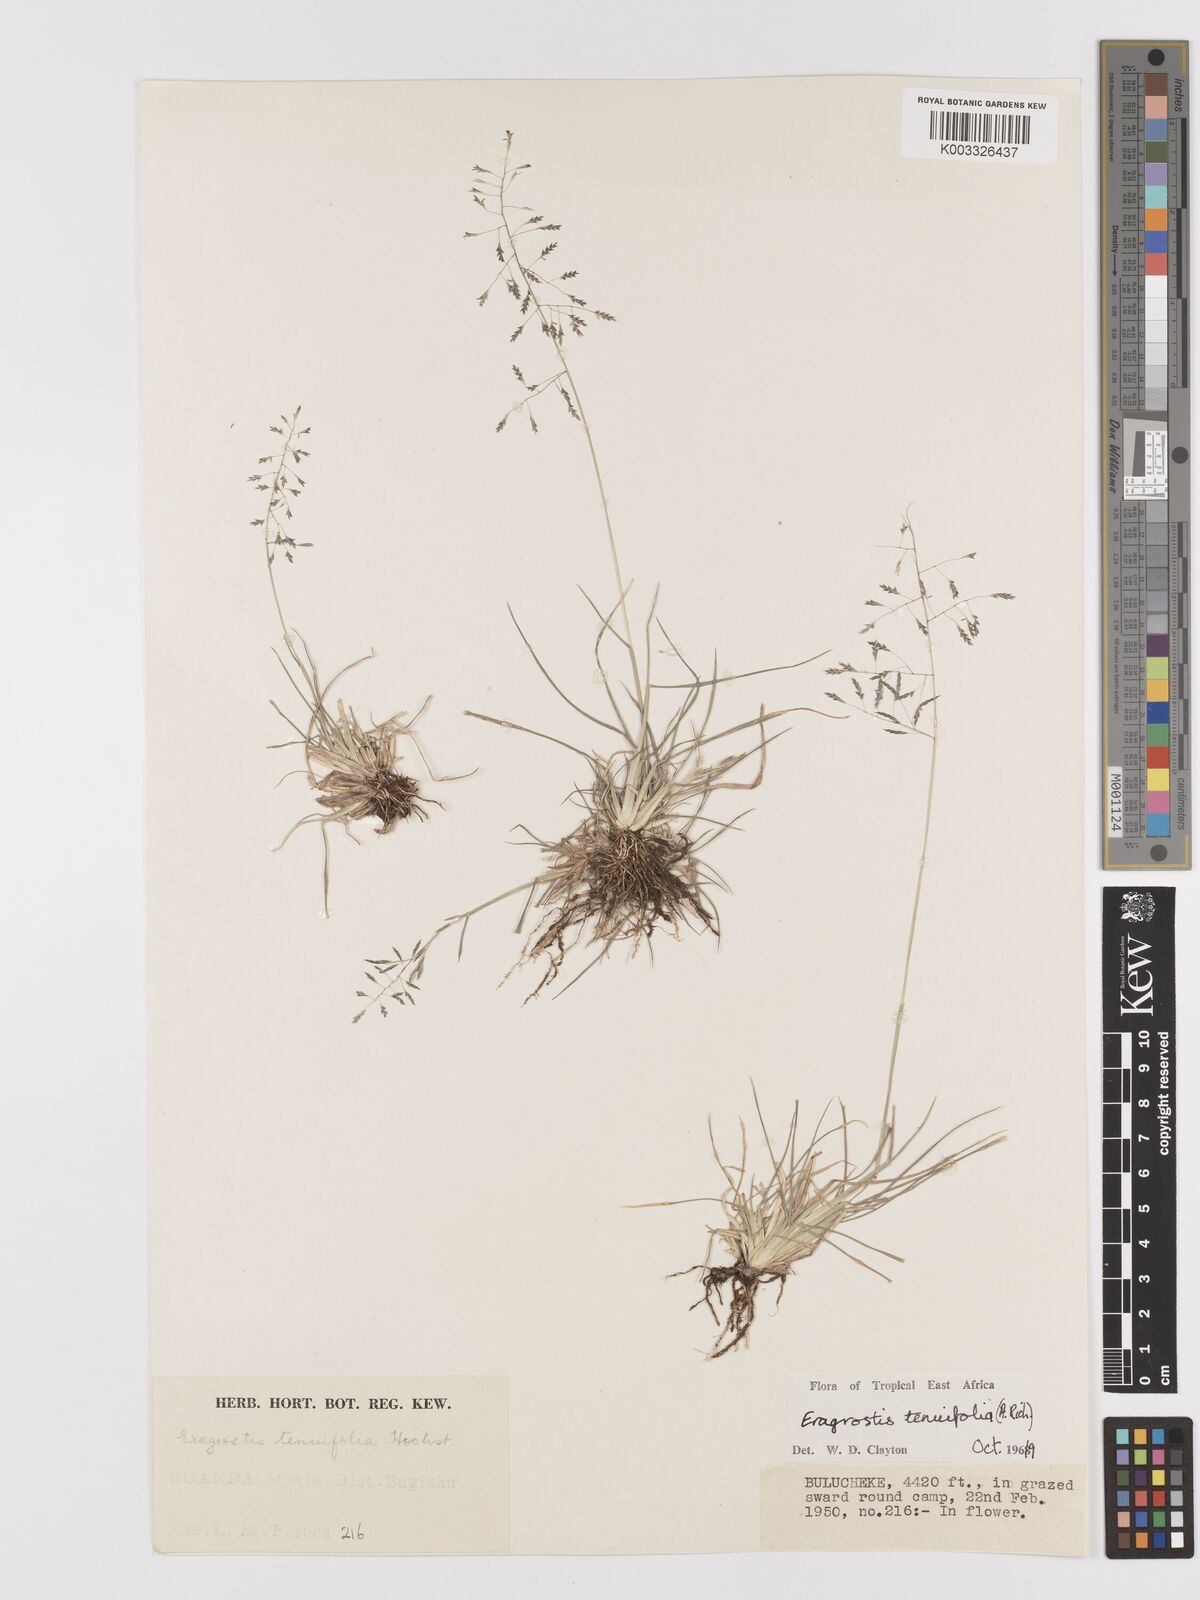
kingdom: Plantae
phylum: Tracheophyta
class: Liliopsida
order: Poales
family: Poaceae
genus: Eragrostis
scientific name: Eragrostis tenuifolia
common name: Elastic grass
